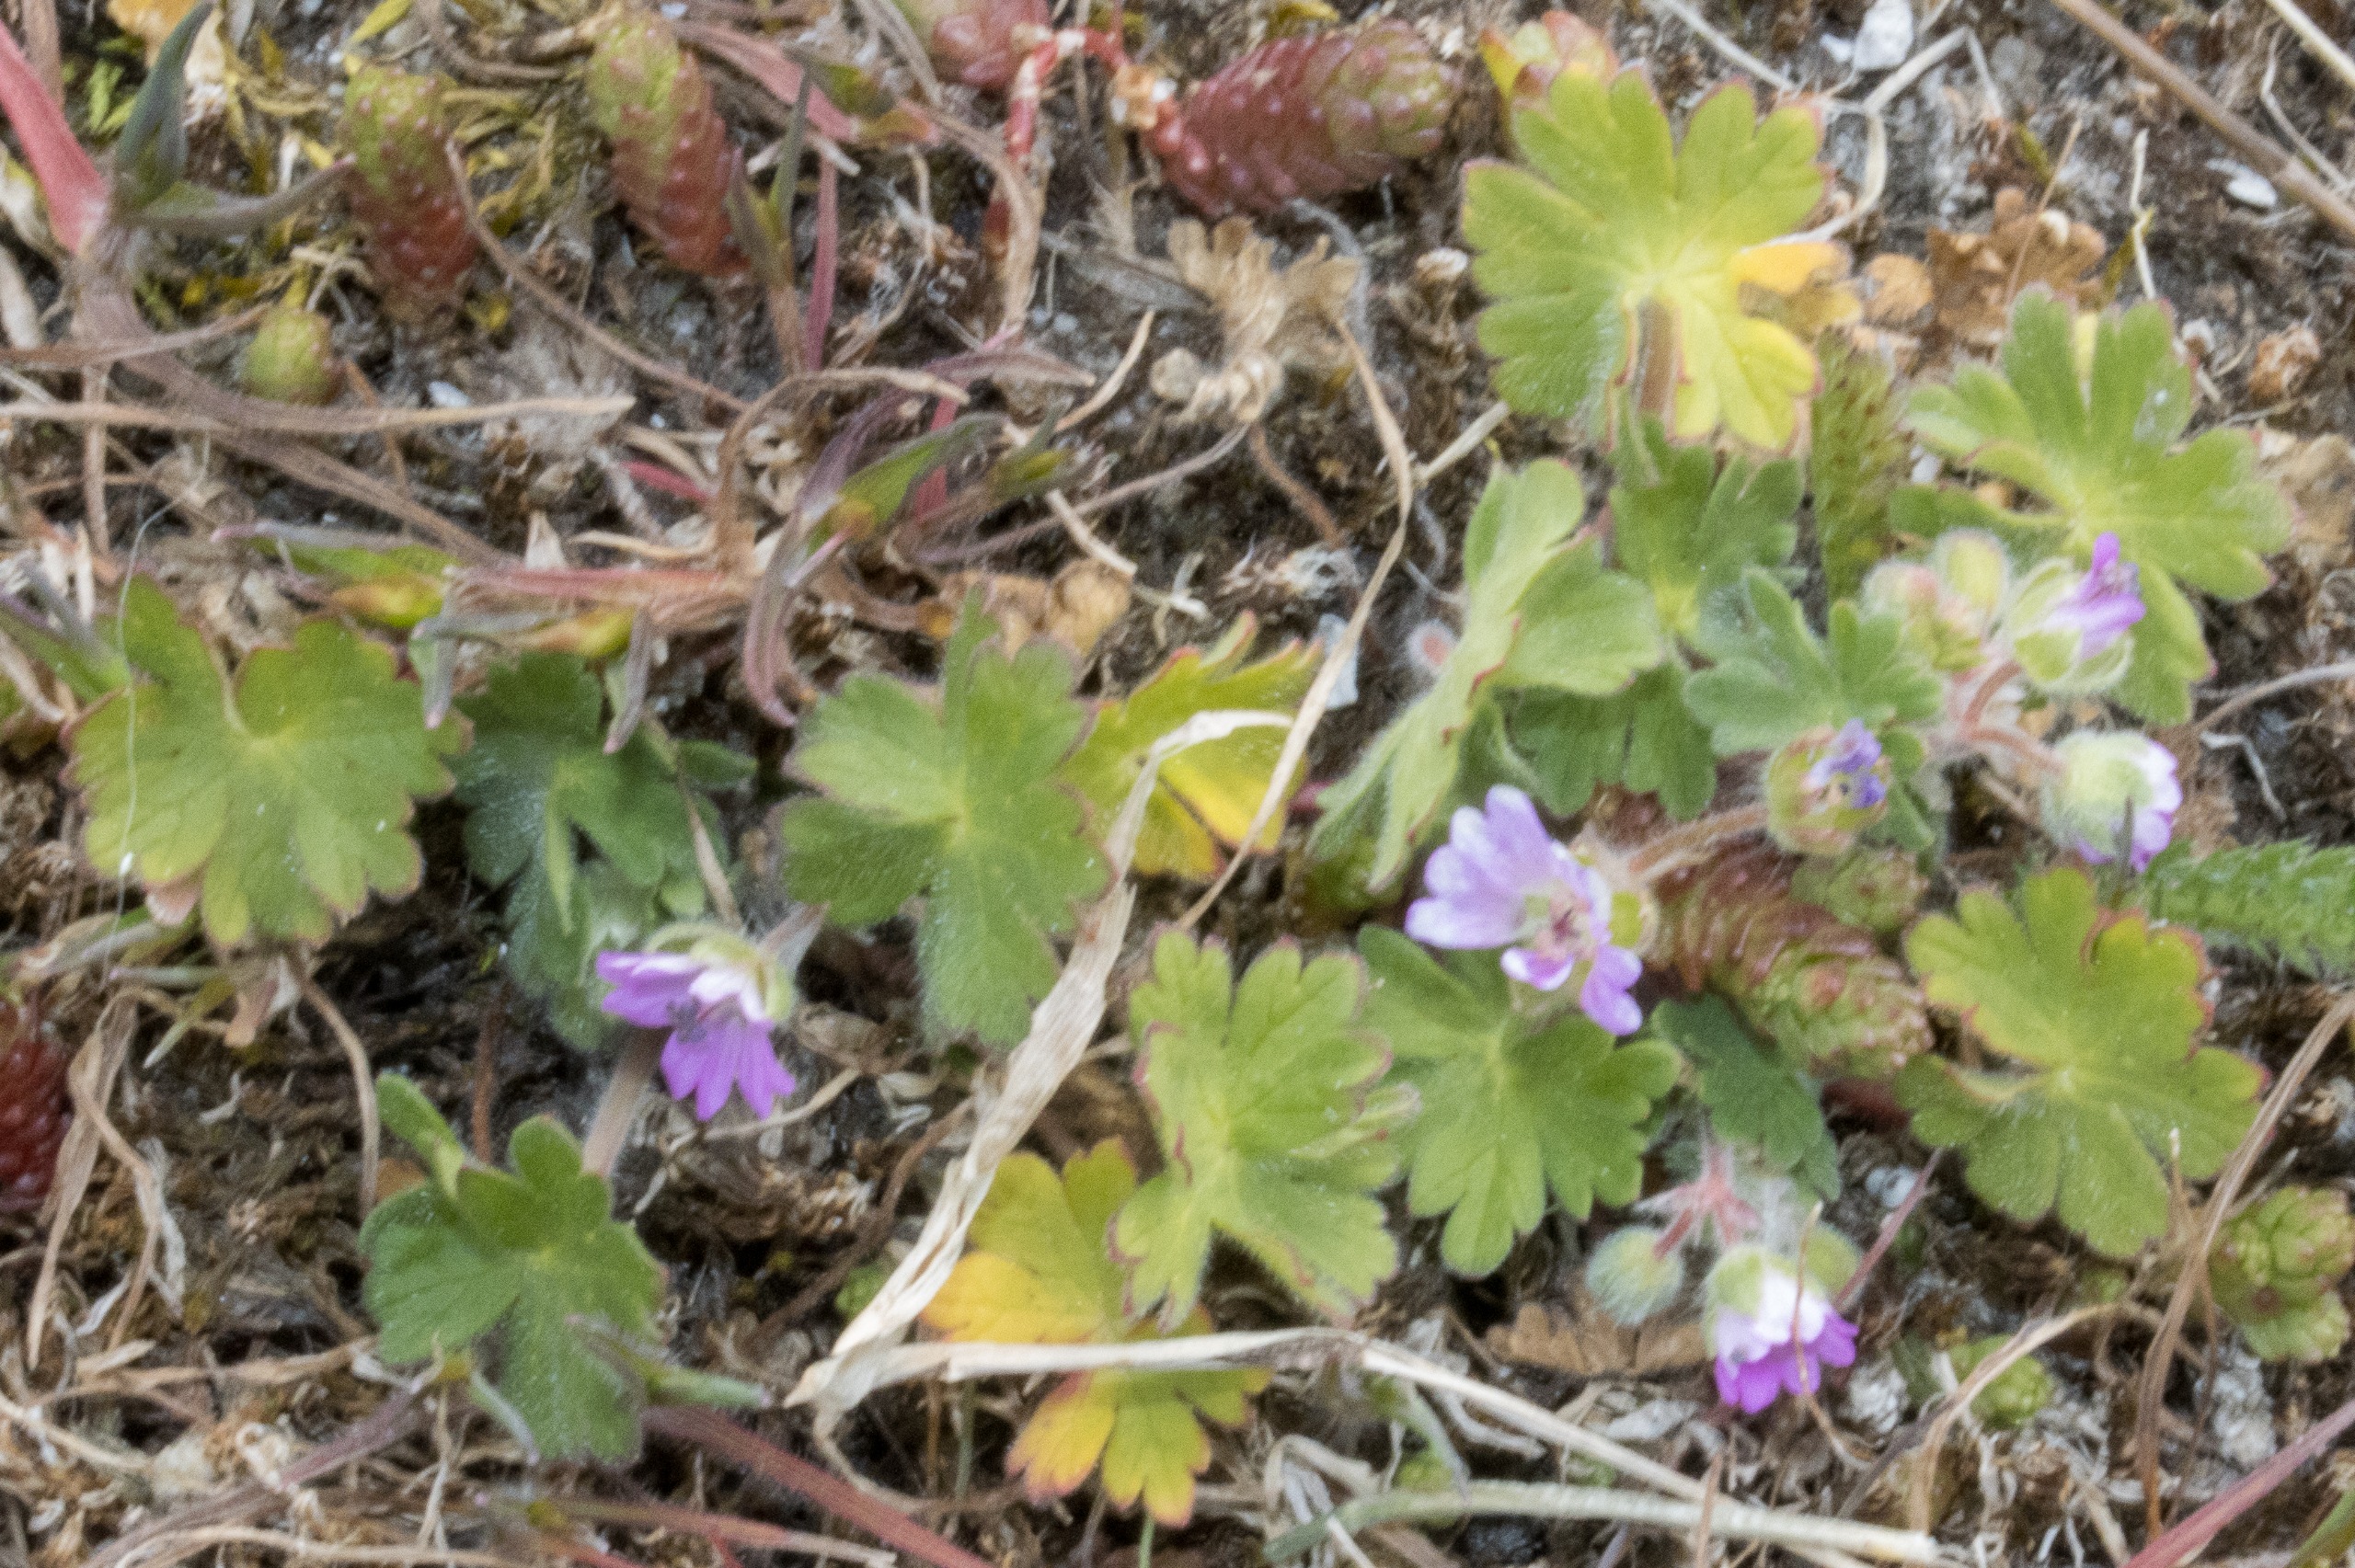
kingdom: Plantae
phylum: Tracheophyta
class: Magnoliopsida
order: Geraniales
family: Geraniaceae
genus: Geranium
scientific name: Geranium molle
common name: Blød storkenæb
